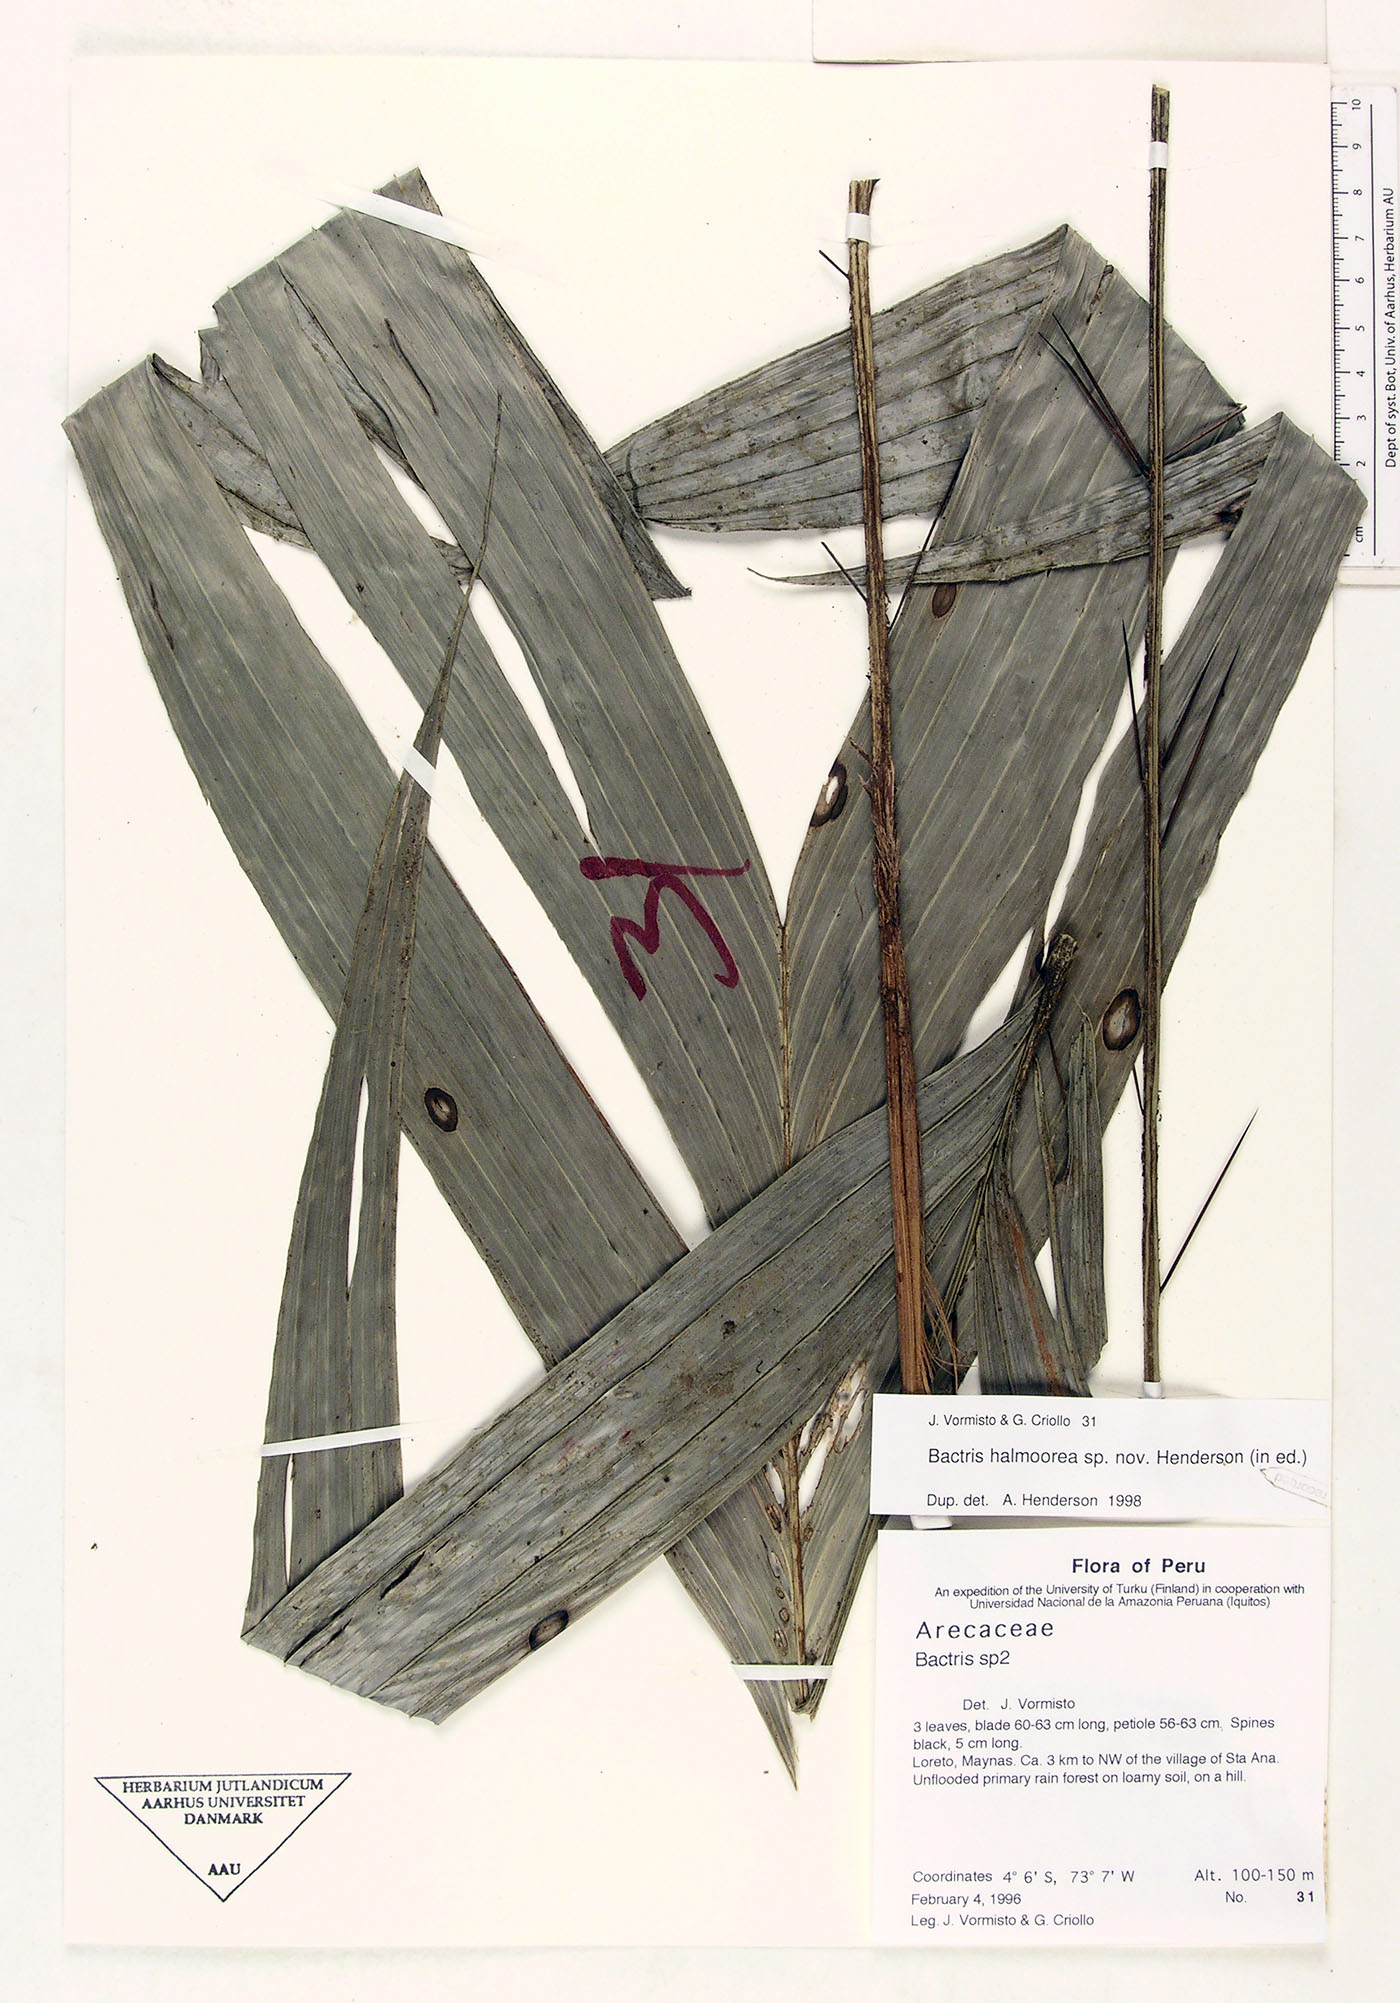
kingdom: Plantae
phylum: Tracheophyta
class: Liliopsida
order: Arecales
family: Arecaceae
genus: Bactris
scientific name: Bactris halmoorei
